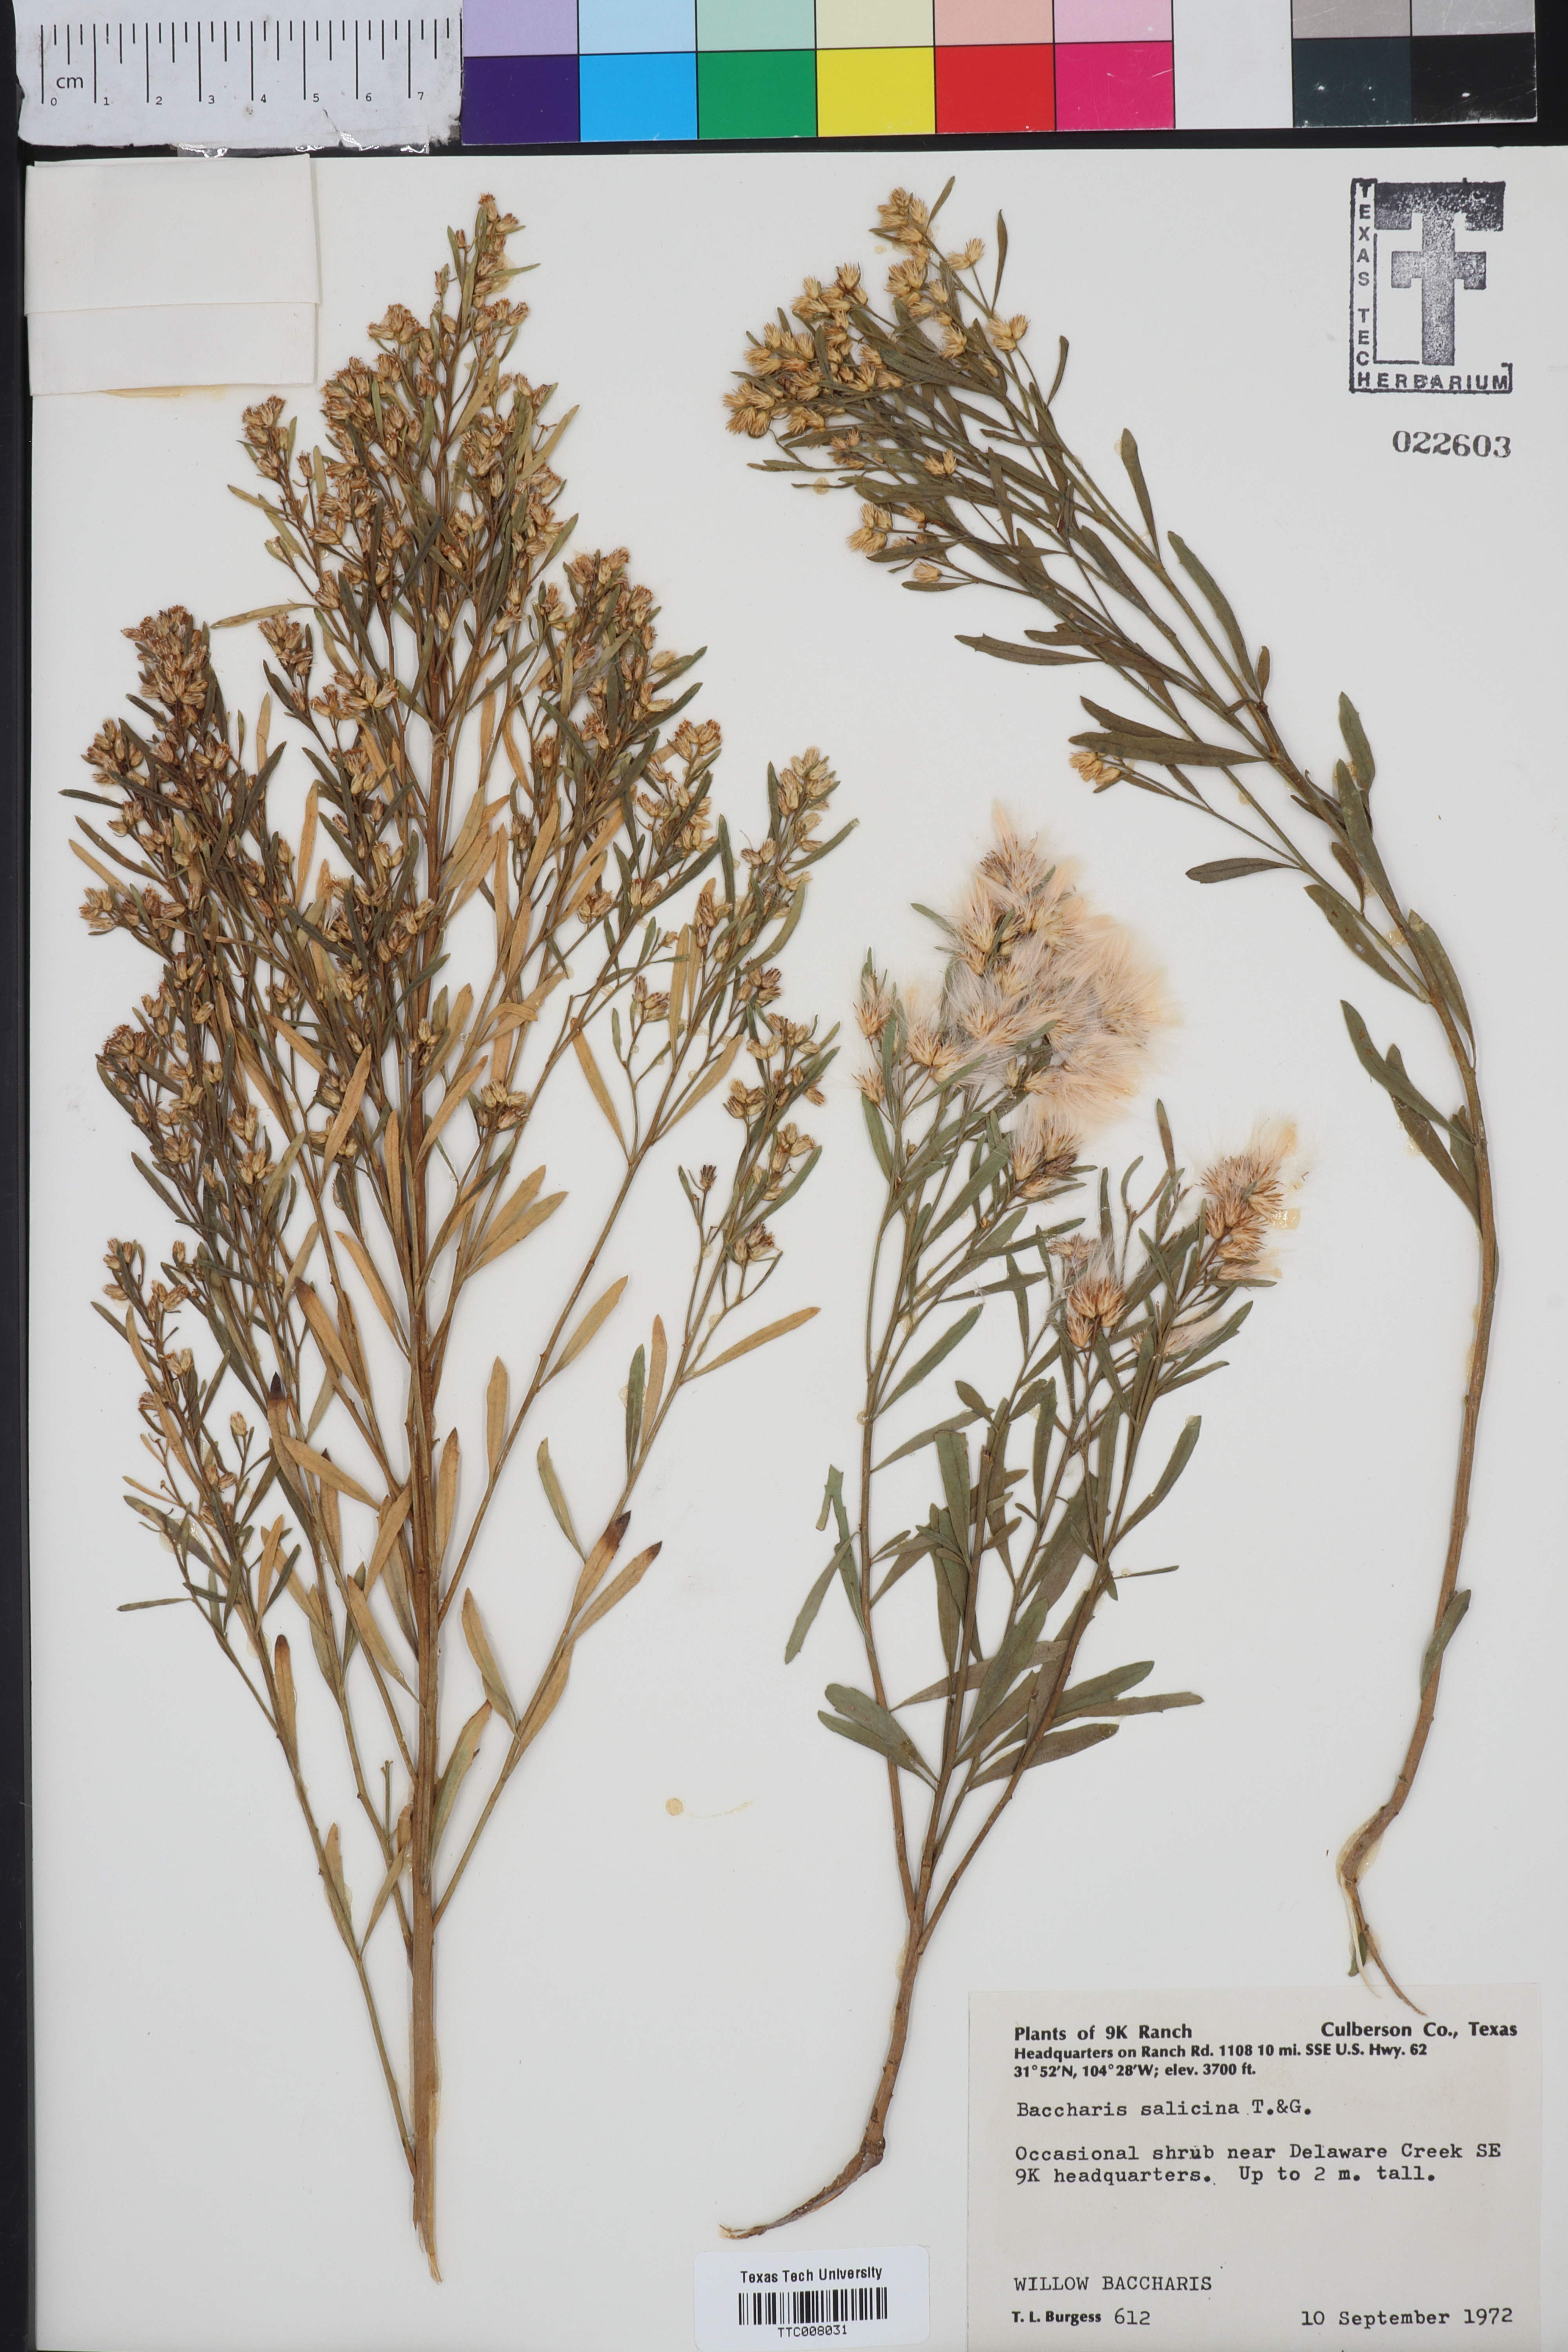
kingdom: Plantae
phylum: Tracheophyta
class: Magnoliopsida
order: Asterales
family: Asteraceae
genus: Baccharis
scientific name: Baccharis salicina
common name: Willow baccharis
